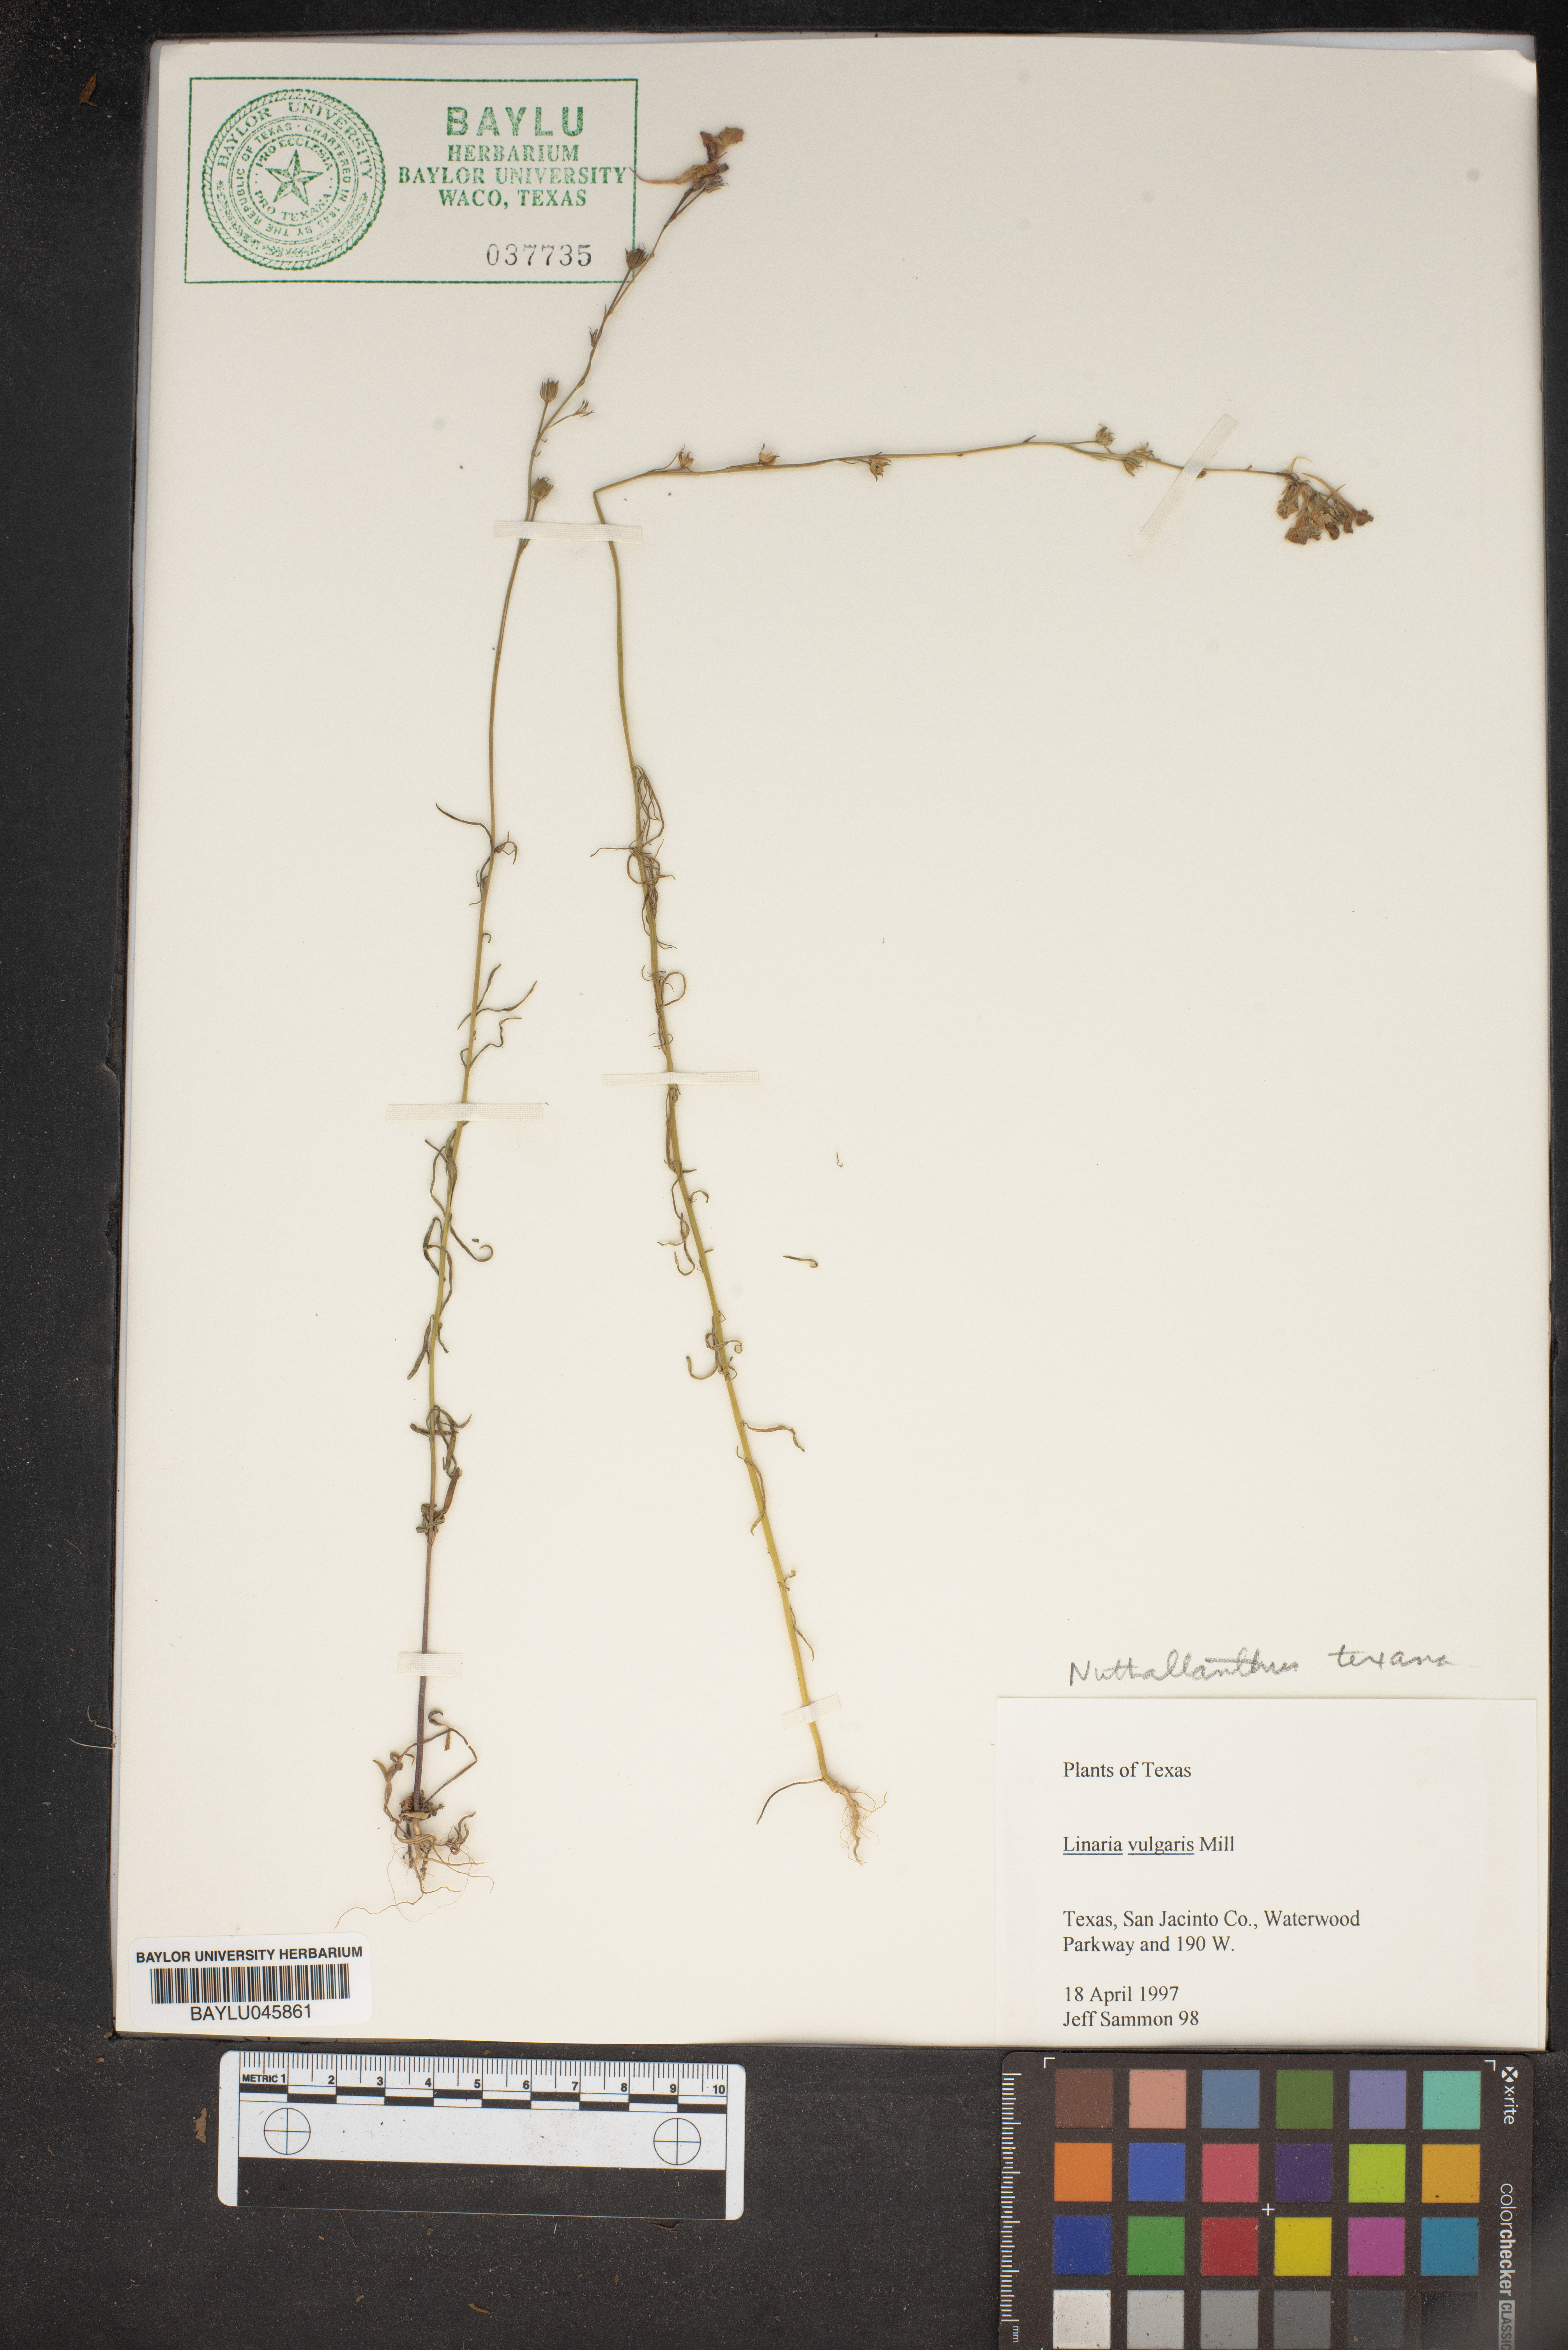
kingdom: Plantae
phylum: Tracheophyta
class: Magnoliopsida
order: Lamiales
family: Plantaginaceae
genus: Linaria
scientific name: Linaria vulgaris
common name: Butter and eggs
